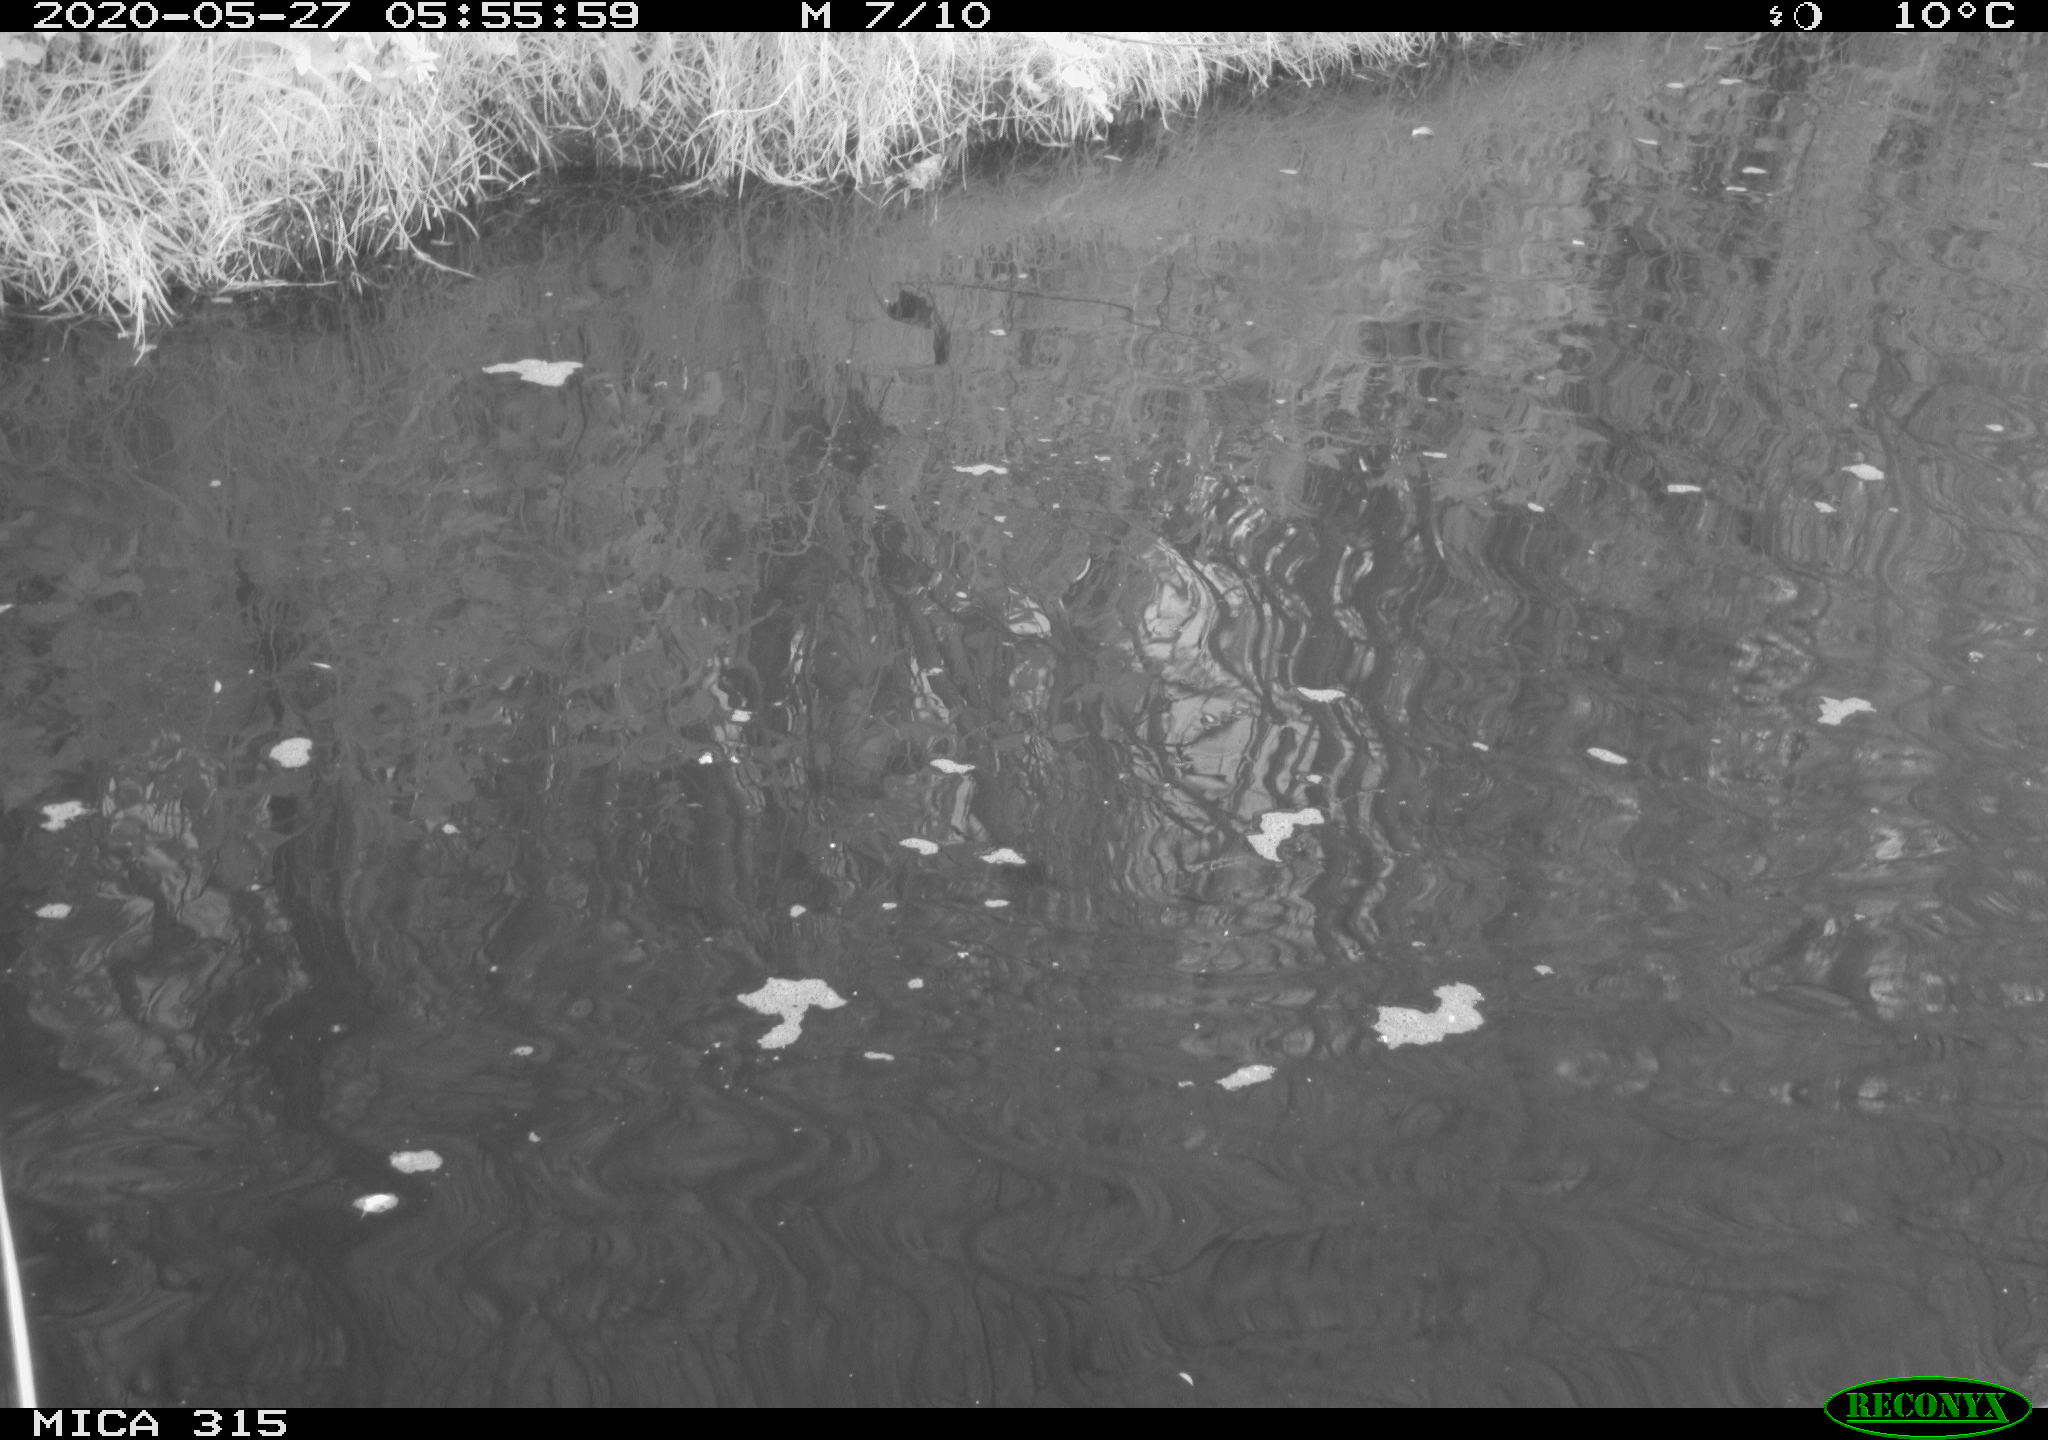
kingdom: Animalia
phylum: Chordata
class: Aves
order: Anseriformes
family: Anatidae
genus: Anas
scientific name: Anas platyrhynchos
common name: Mallard
